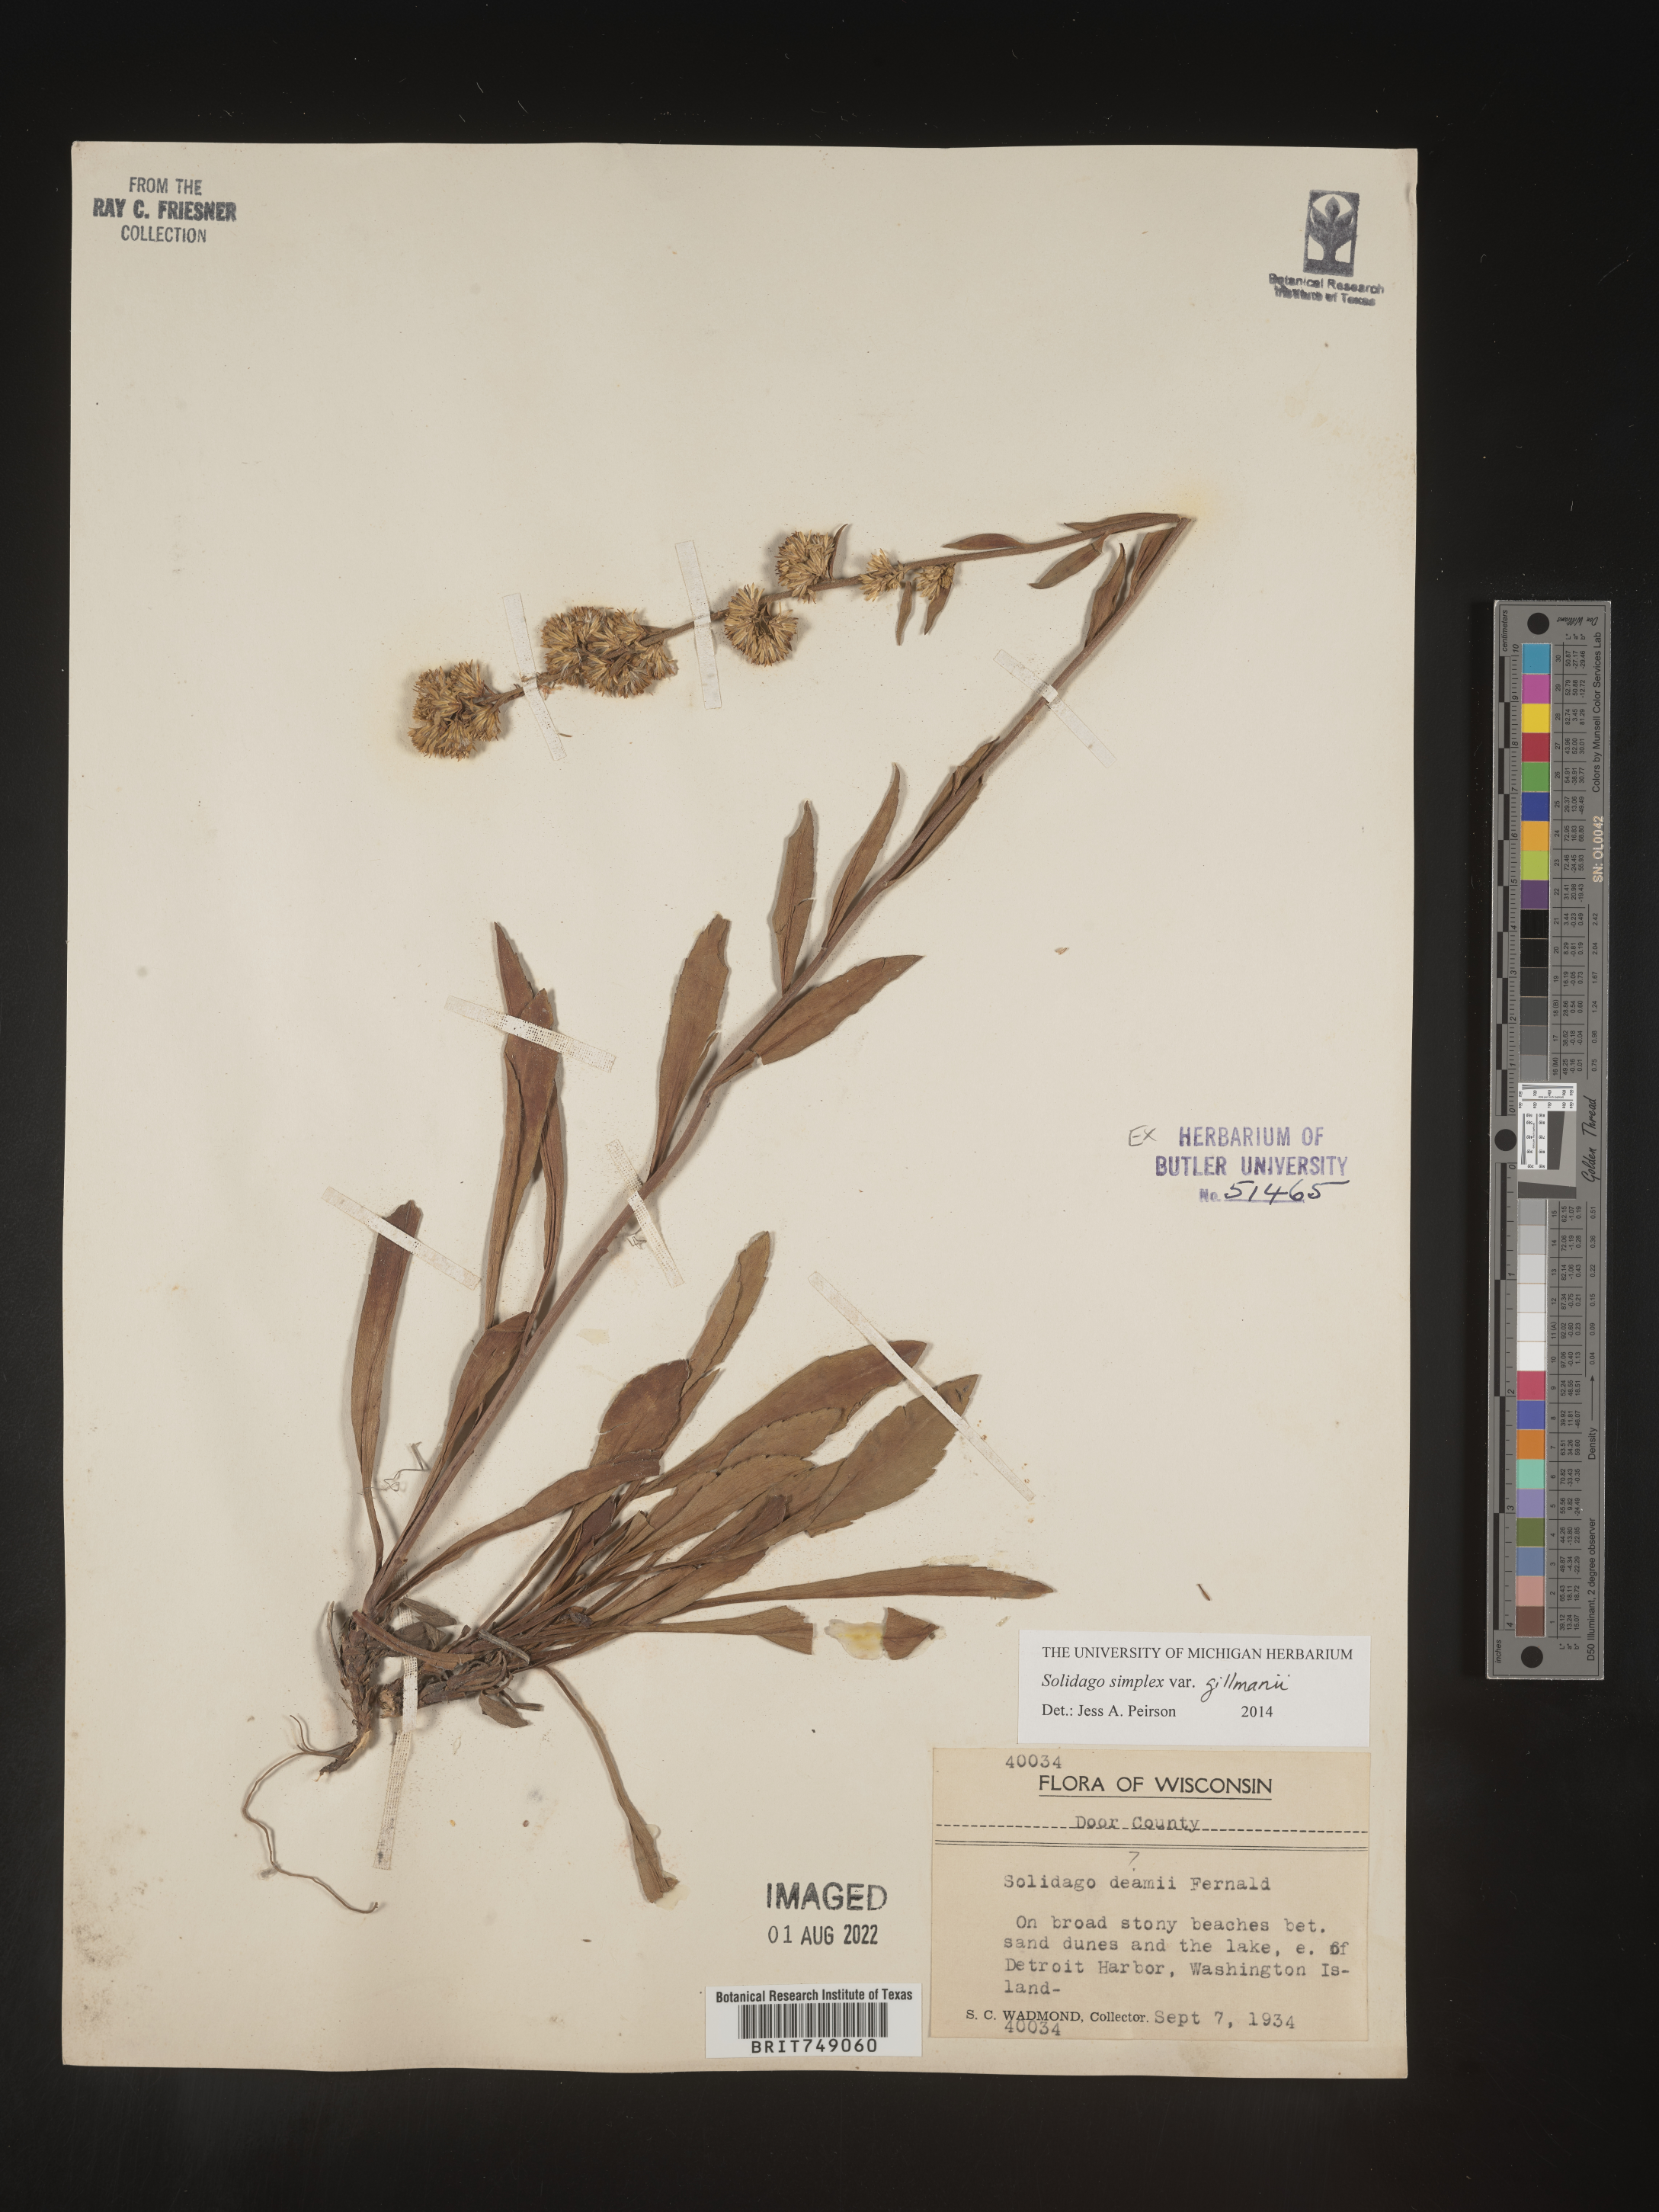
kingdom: Plantae
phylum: Tracheophyta
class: Magnoliopsida
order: Asterales
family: Asteraceae
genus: Solidago
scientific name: Solidago simplex
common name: Sticky goldenrod
